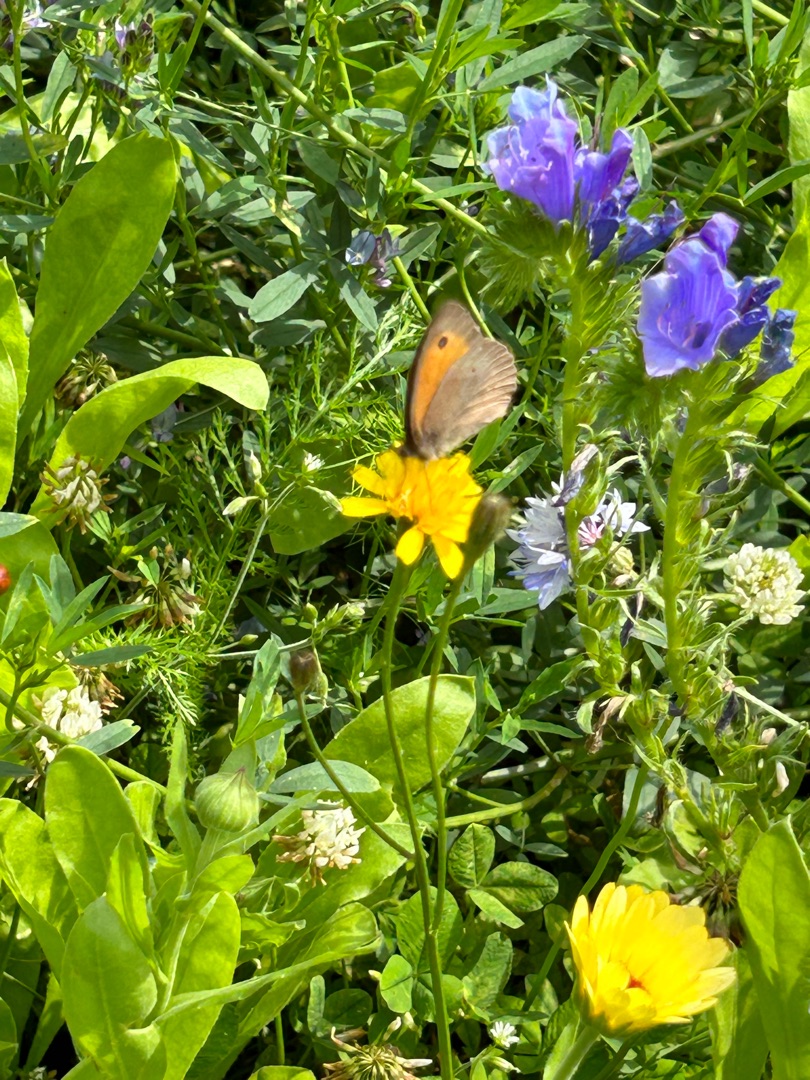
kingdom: Animalia
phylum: Arthropoda
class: Insecta
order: Lepidoptera
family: Nymphalidae
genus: Maniola
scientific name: Maniola jurtina
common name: Græsrandøje
